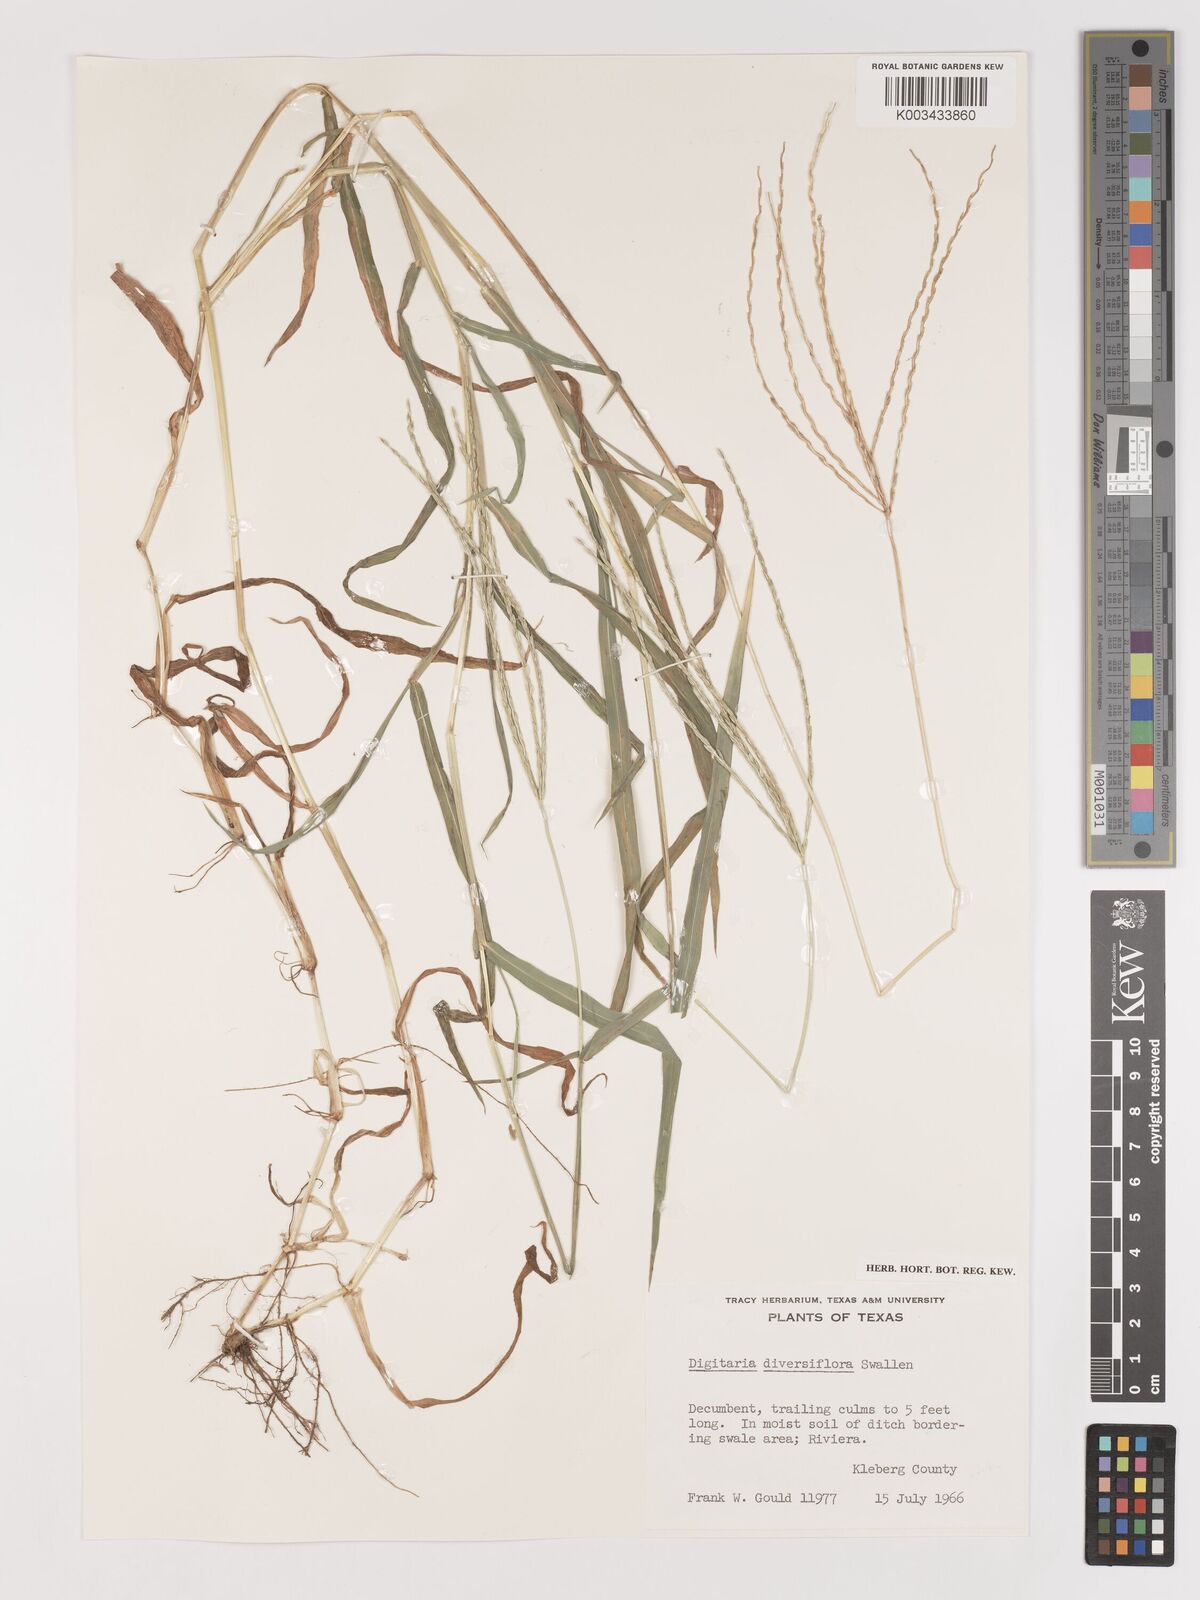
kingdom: Plantae
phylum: Tracheophyta
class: Liliopsida
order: Poales
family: Poaceae
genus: Digitaria
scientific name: Digitaria bicornis
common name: Asian crabgrass
